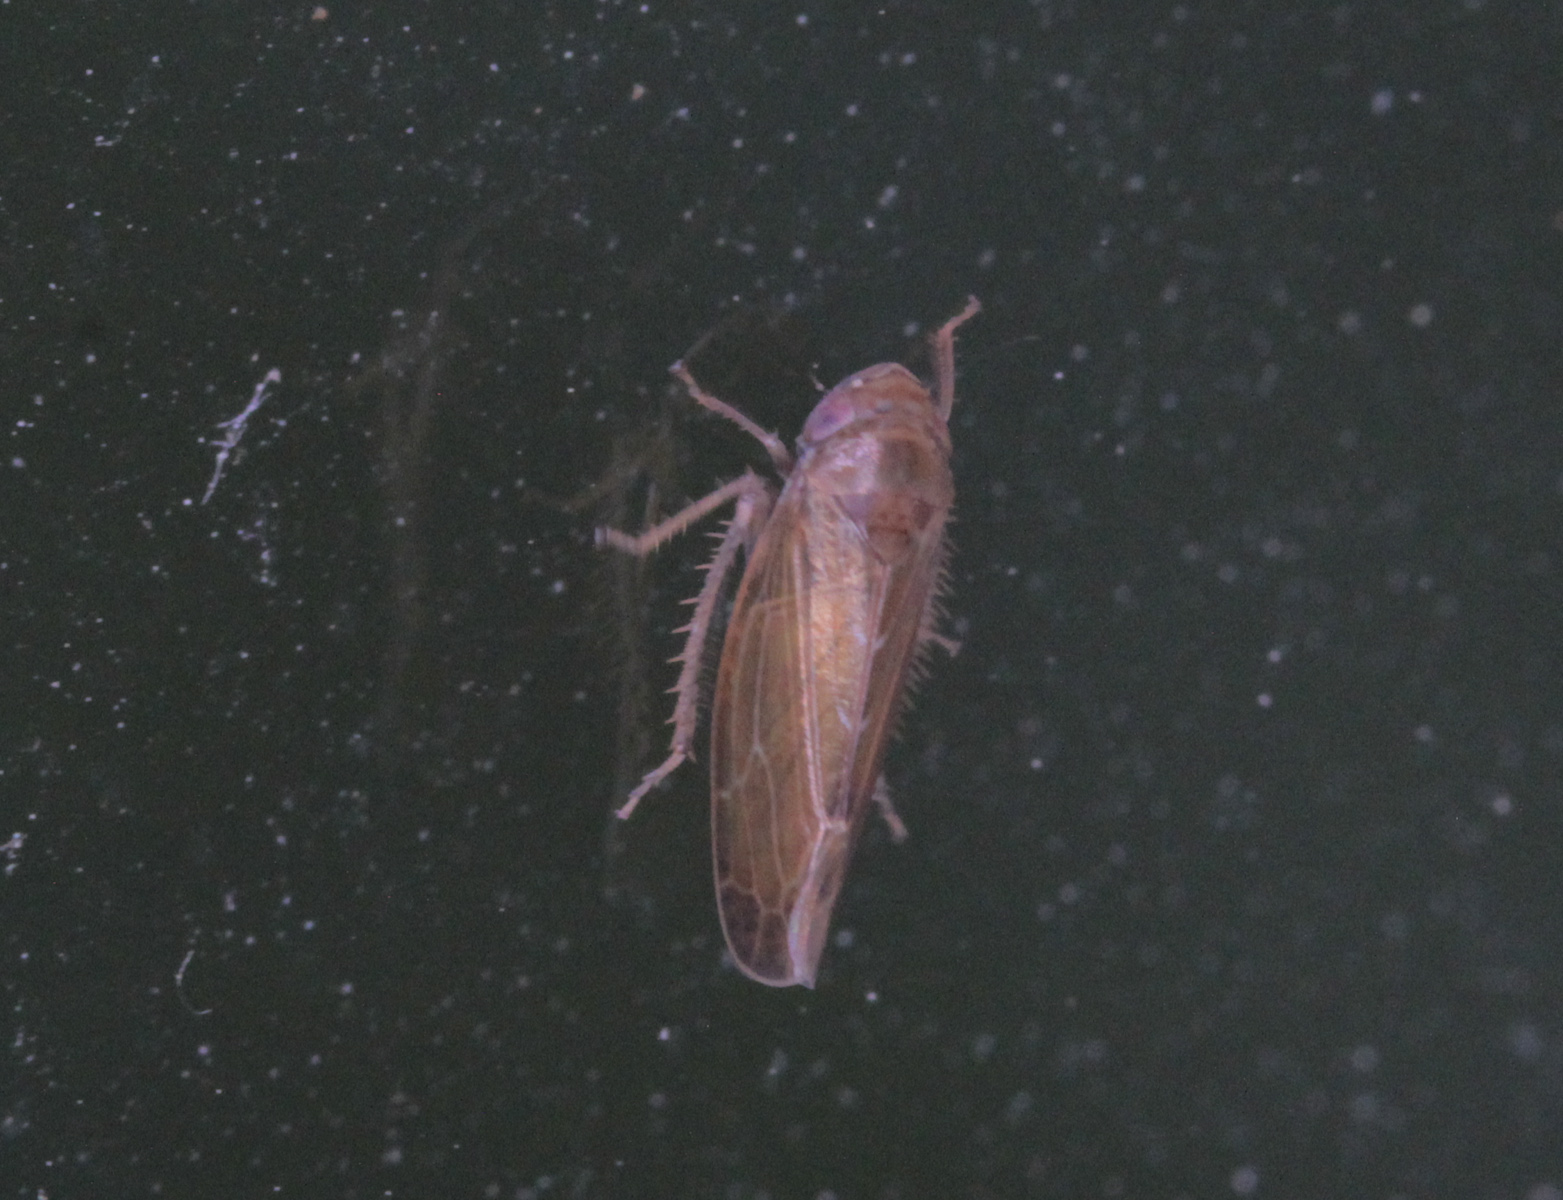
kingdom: Animalia
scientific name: Animalia
